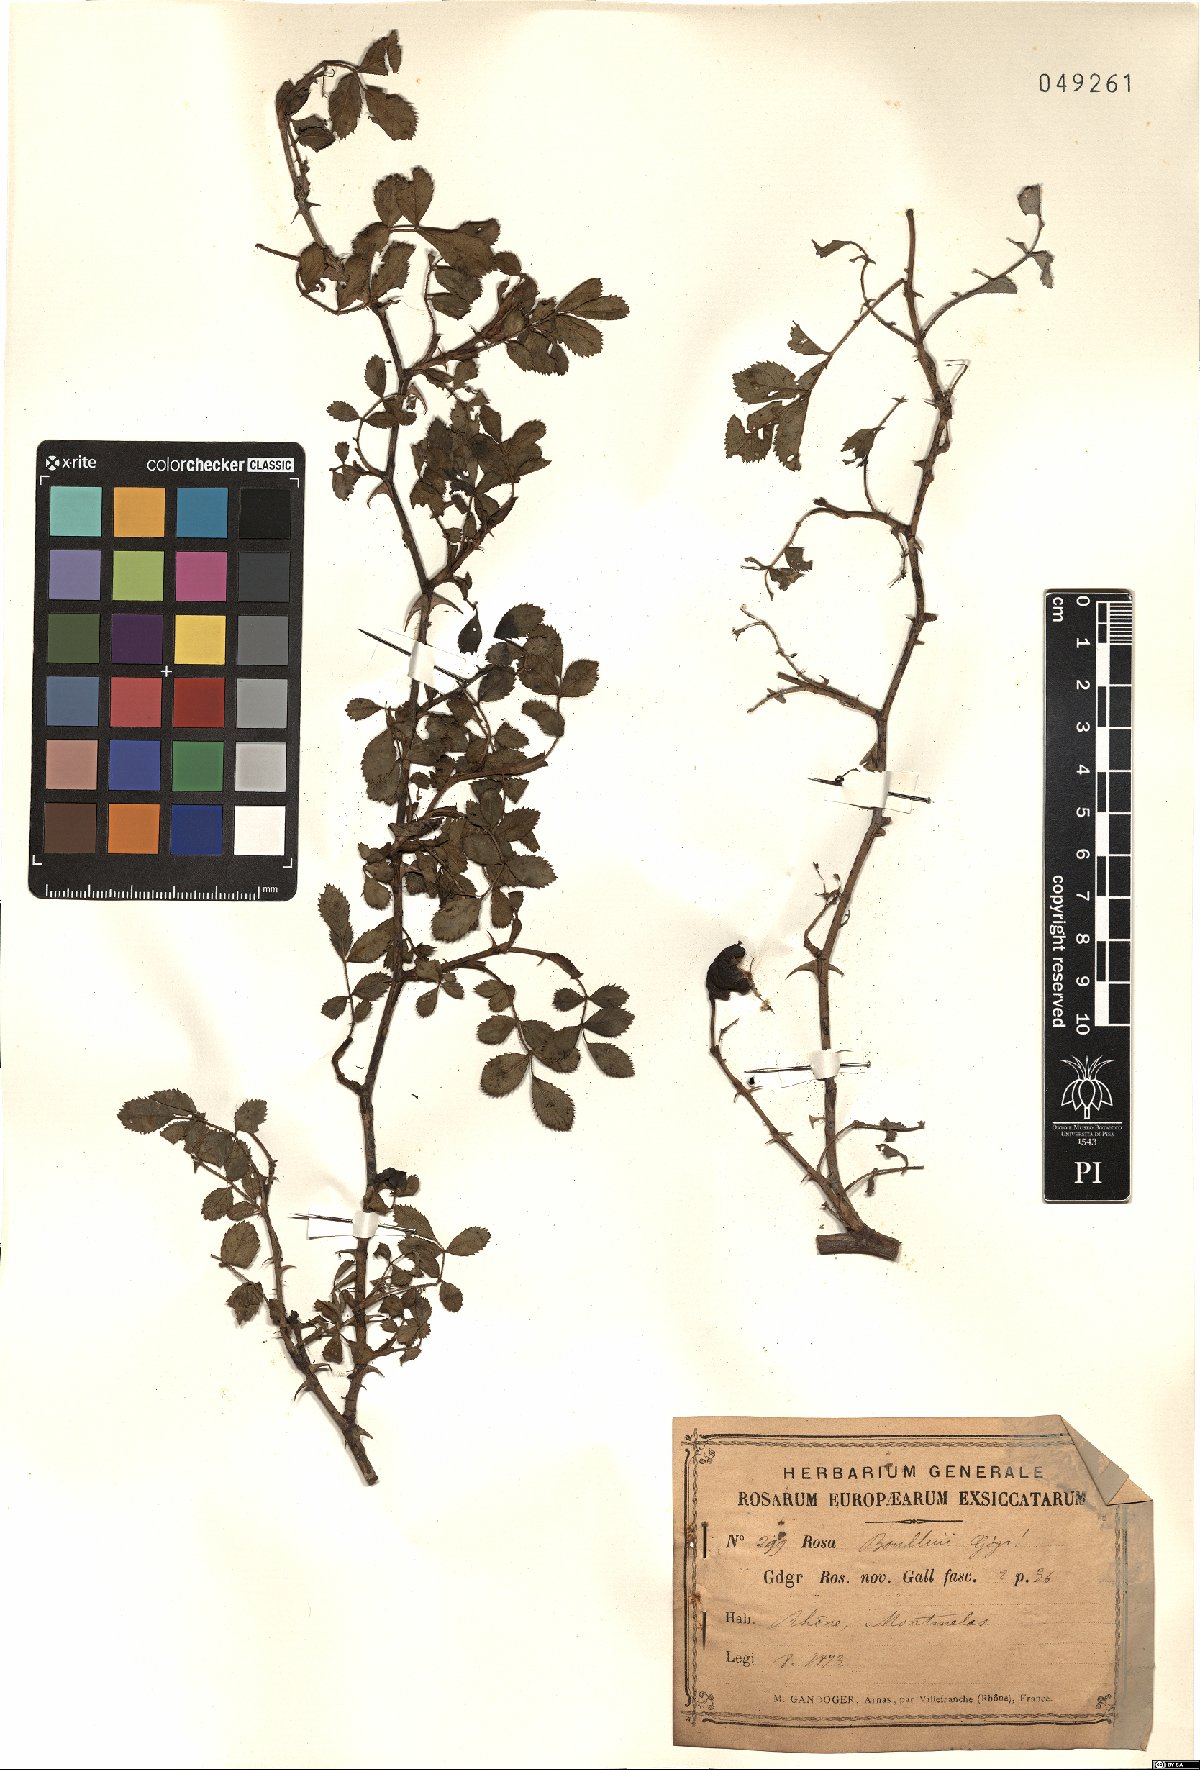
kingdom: Plantae
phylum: Tracheophyta
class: Magnoliopsida
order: Rosales
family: Rosaceae
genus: Rosa
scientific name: Rosa inodora
